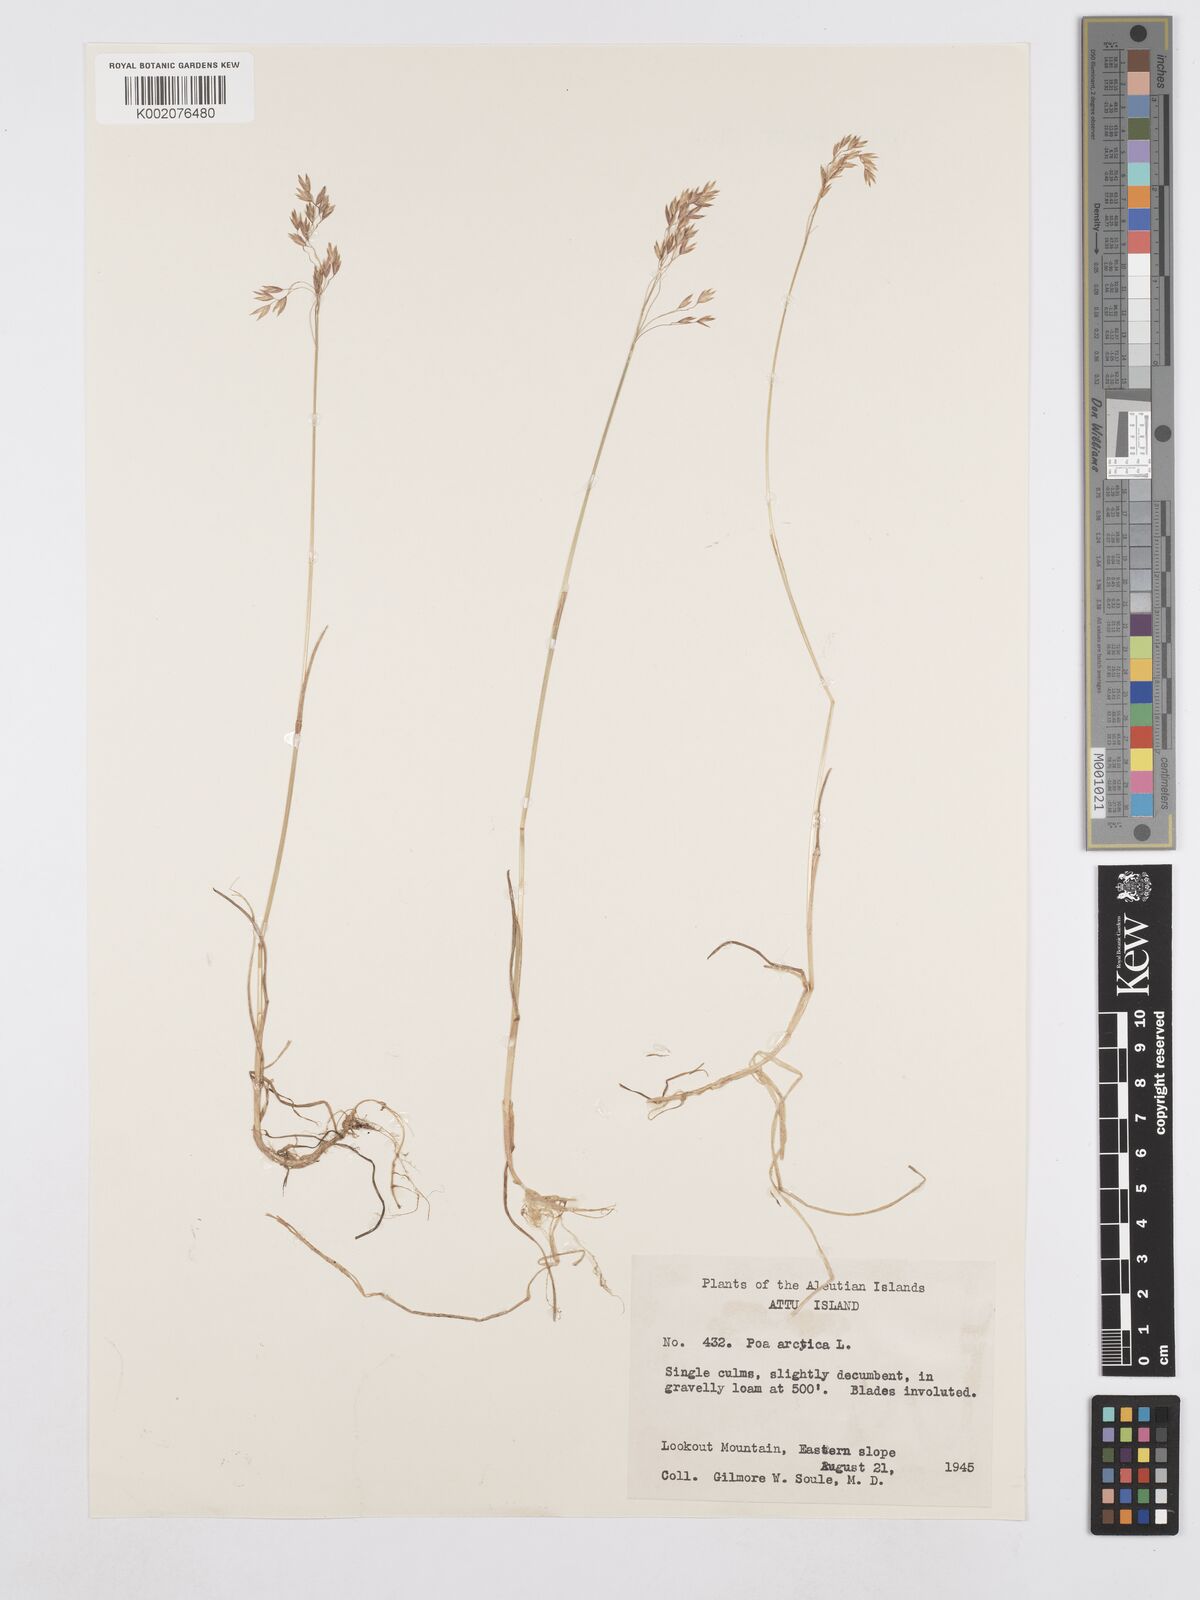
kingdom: Plantae
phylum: Tracheophyta
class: Liliopsida
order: Poales
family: Poaceae
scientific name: Poaceae
